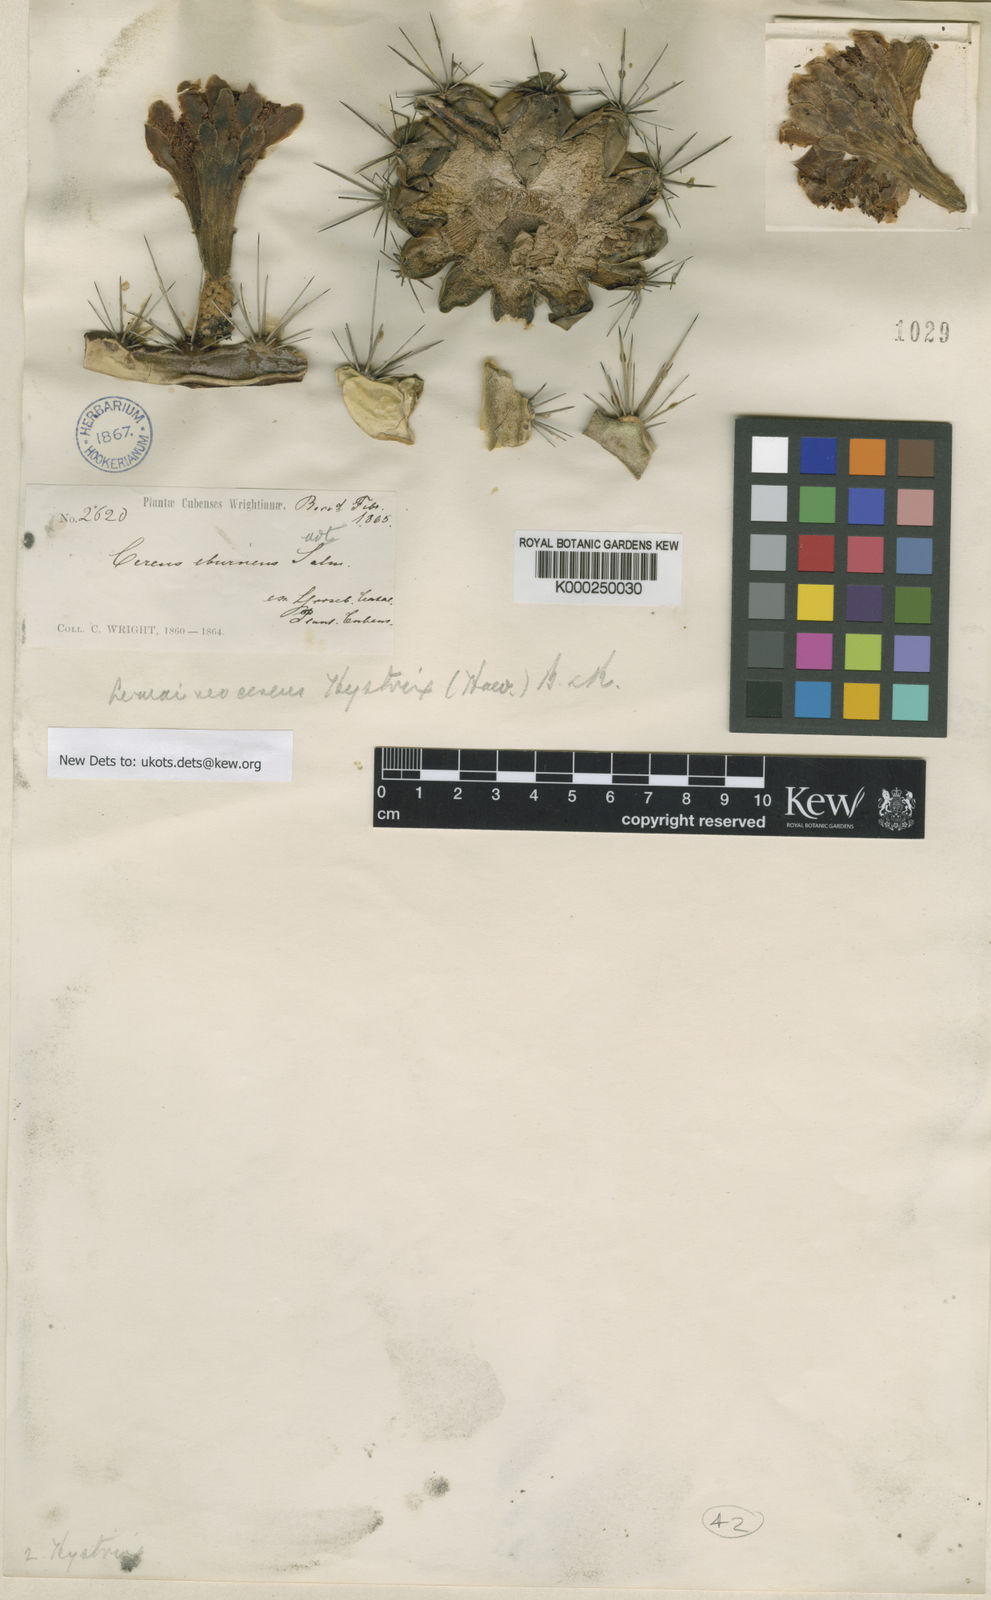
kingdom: Plantae
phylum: Tracheophyta
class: Magnoliopsida
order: Caryophyllales
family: Cactaceae
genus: Stenocereus
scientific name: Stenocereus heptagonus
